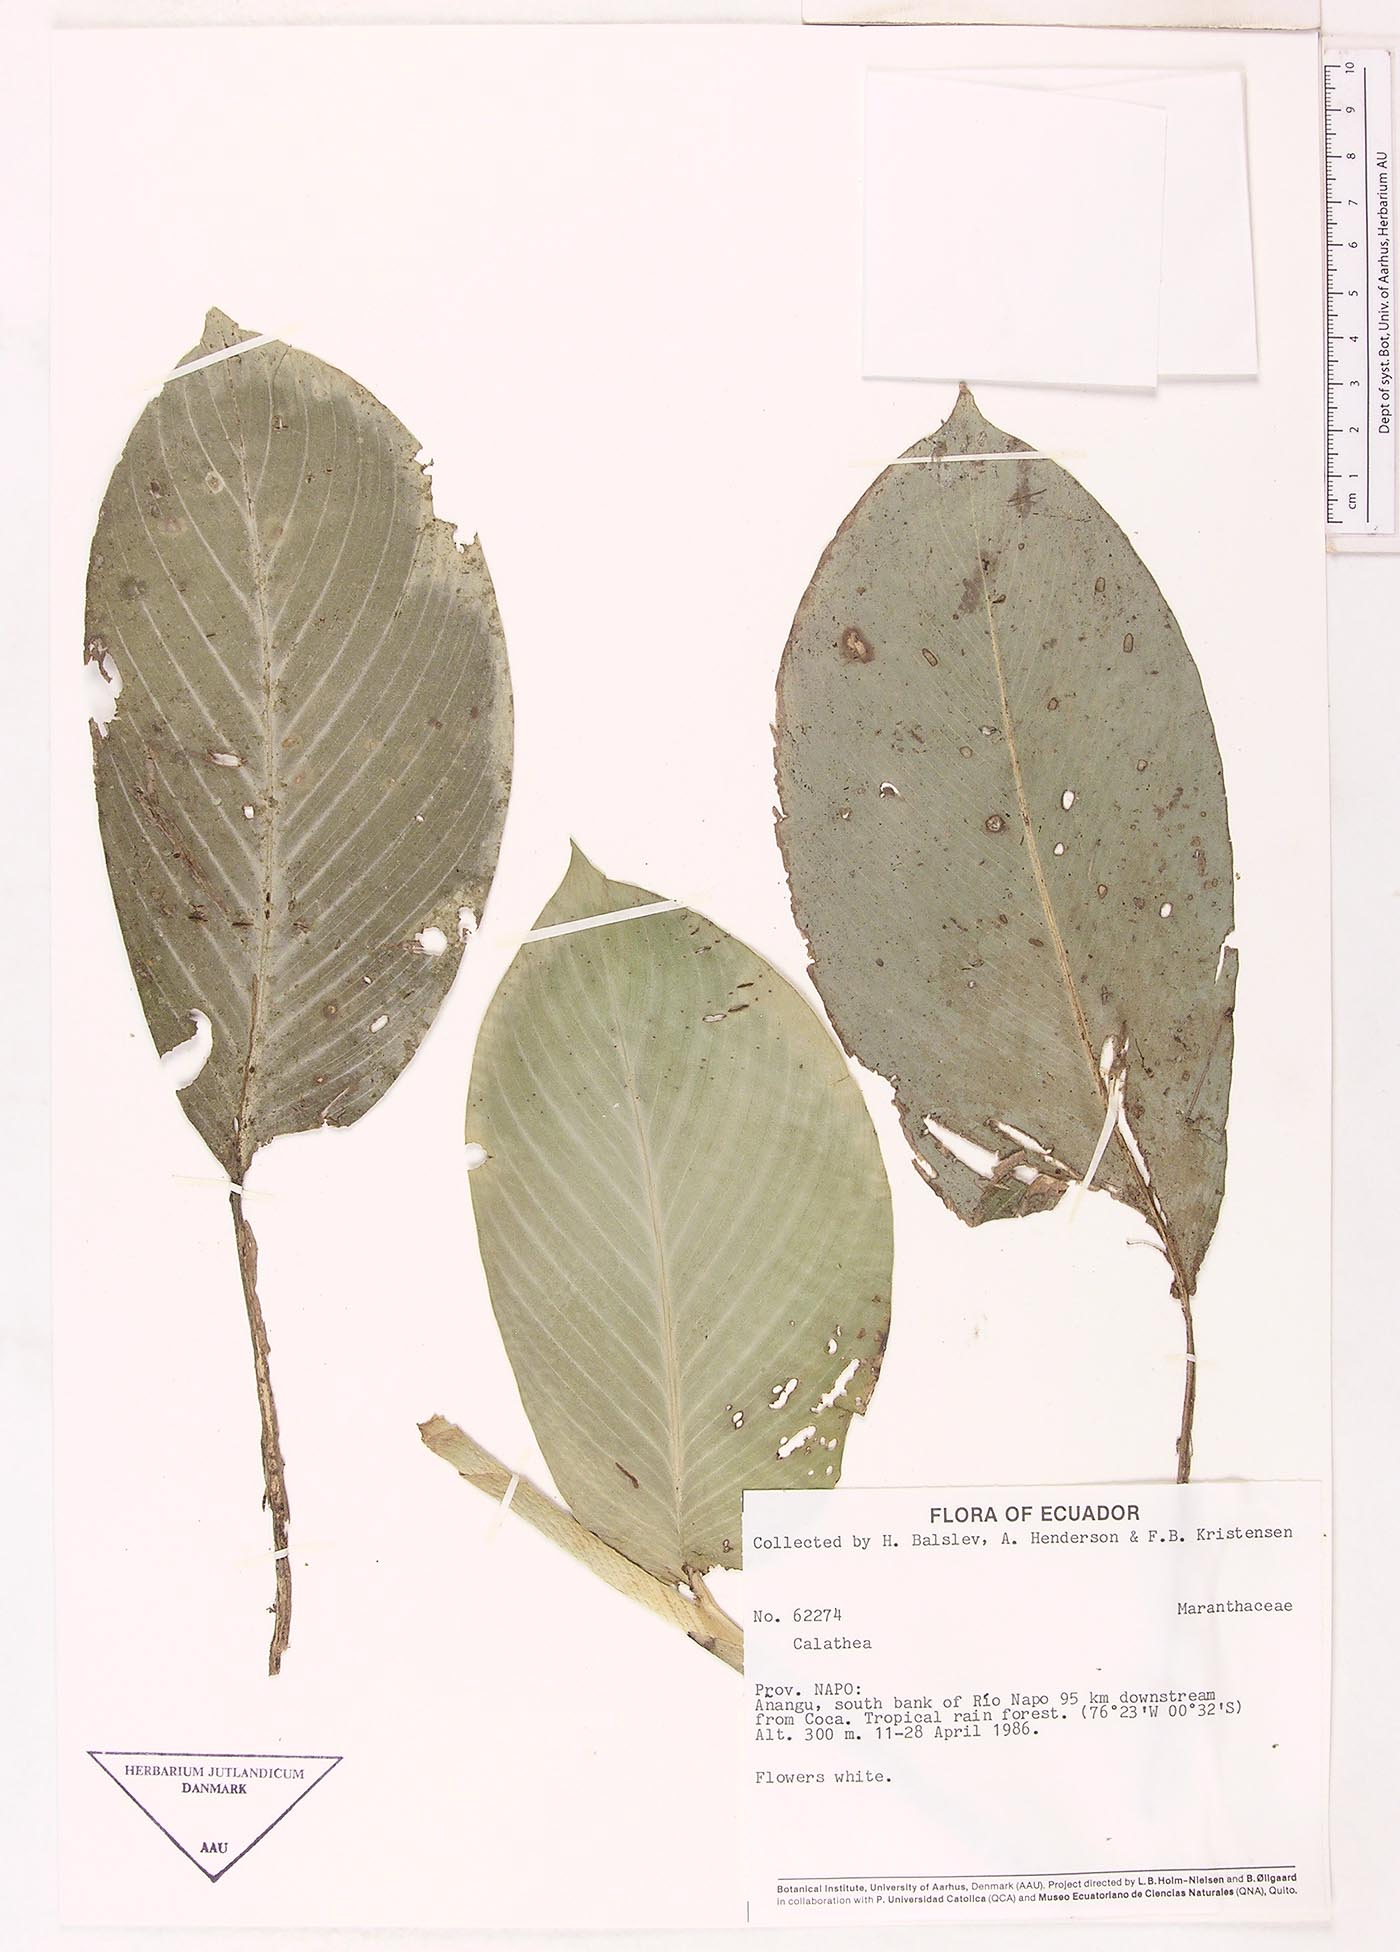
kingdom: Plantae
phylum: Tracheophyta
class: Magnoliopsida
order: Laurales
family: Lauraceae
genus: Goeppertia
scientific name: Goeppertia
